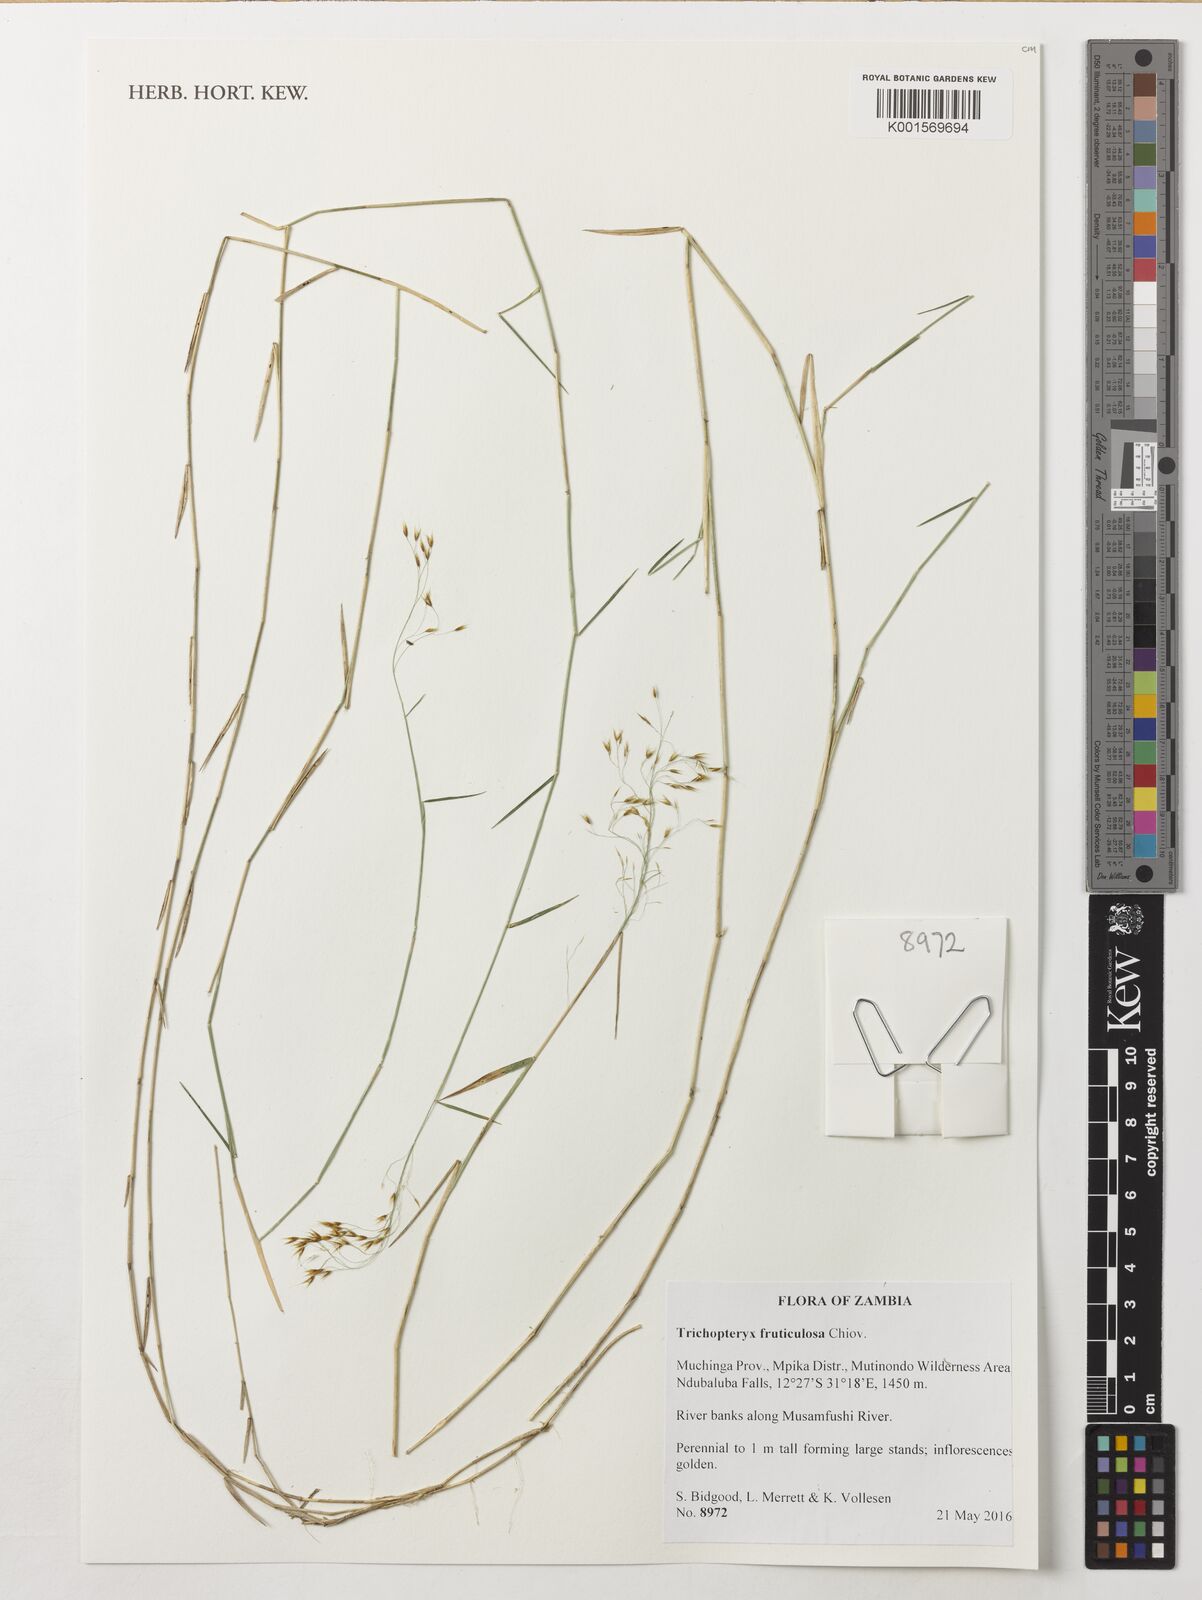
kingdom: Plantae
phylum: Tracheophyta
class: Liliopsida
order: Poales
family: Poaceae
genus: Trichopteryx
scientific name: Trichopteryx fruticulosa
